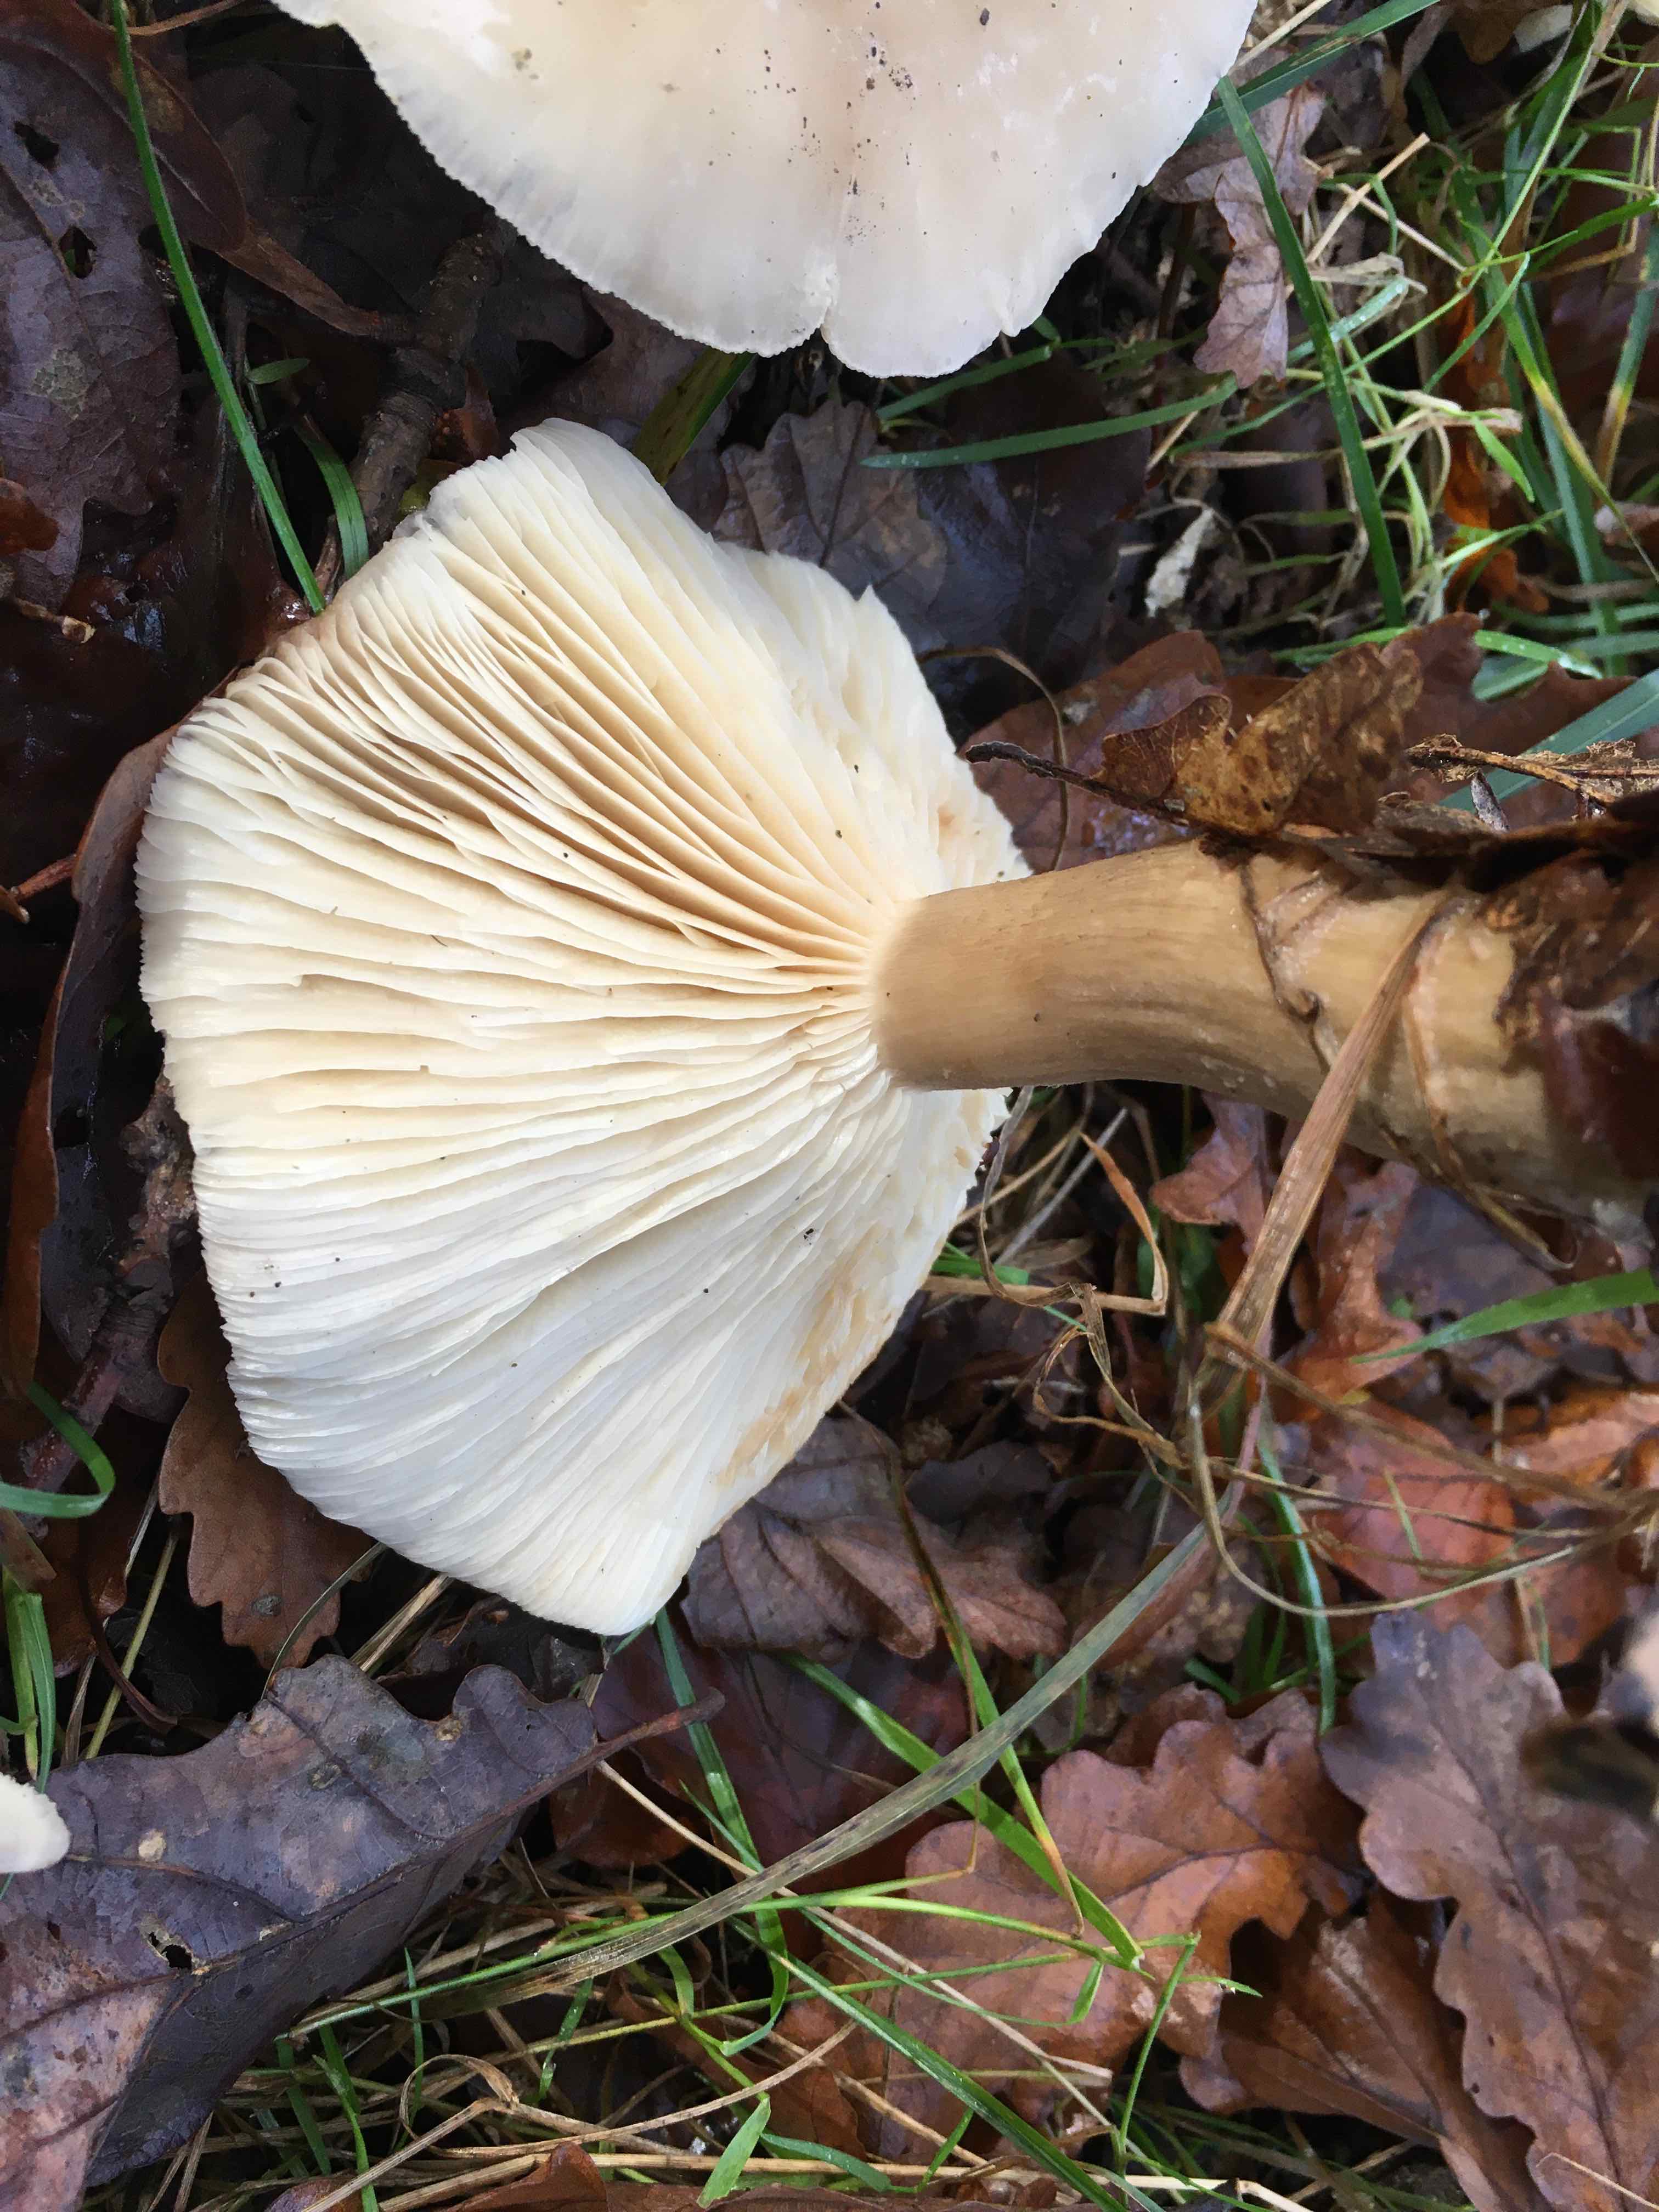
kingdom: Fungi
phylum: Basidiomycota
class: Agaricomycetes
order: Agaricales
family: Tricholomataceae
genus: Clitocybe
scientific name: Clitocybe nebularis
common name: tåge-tragthat
